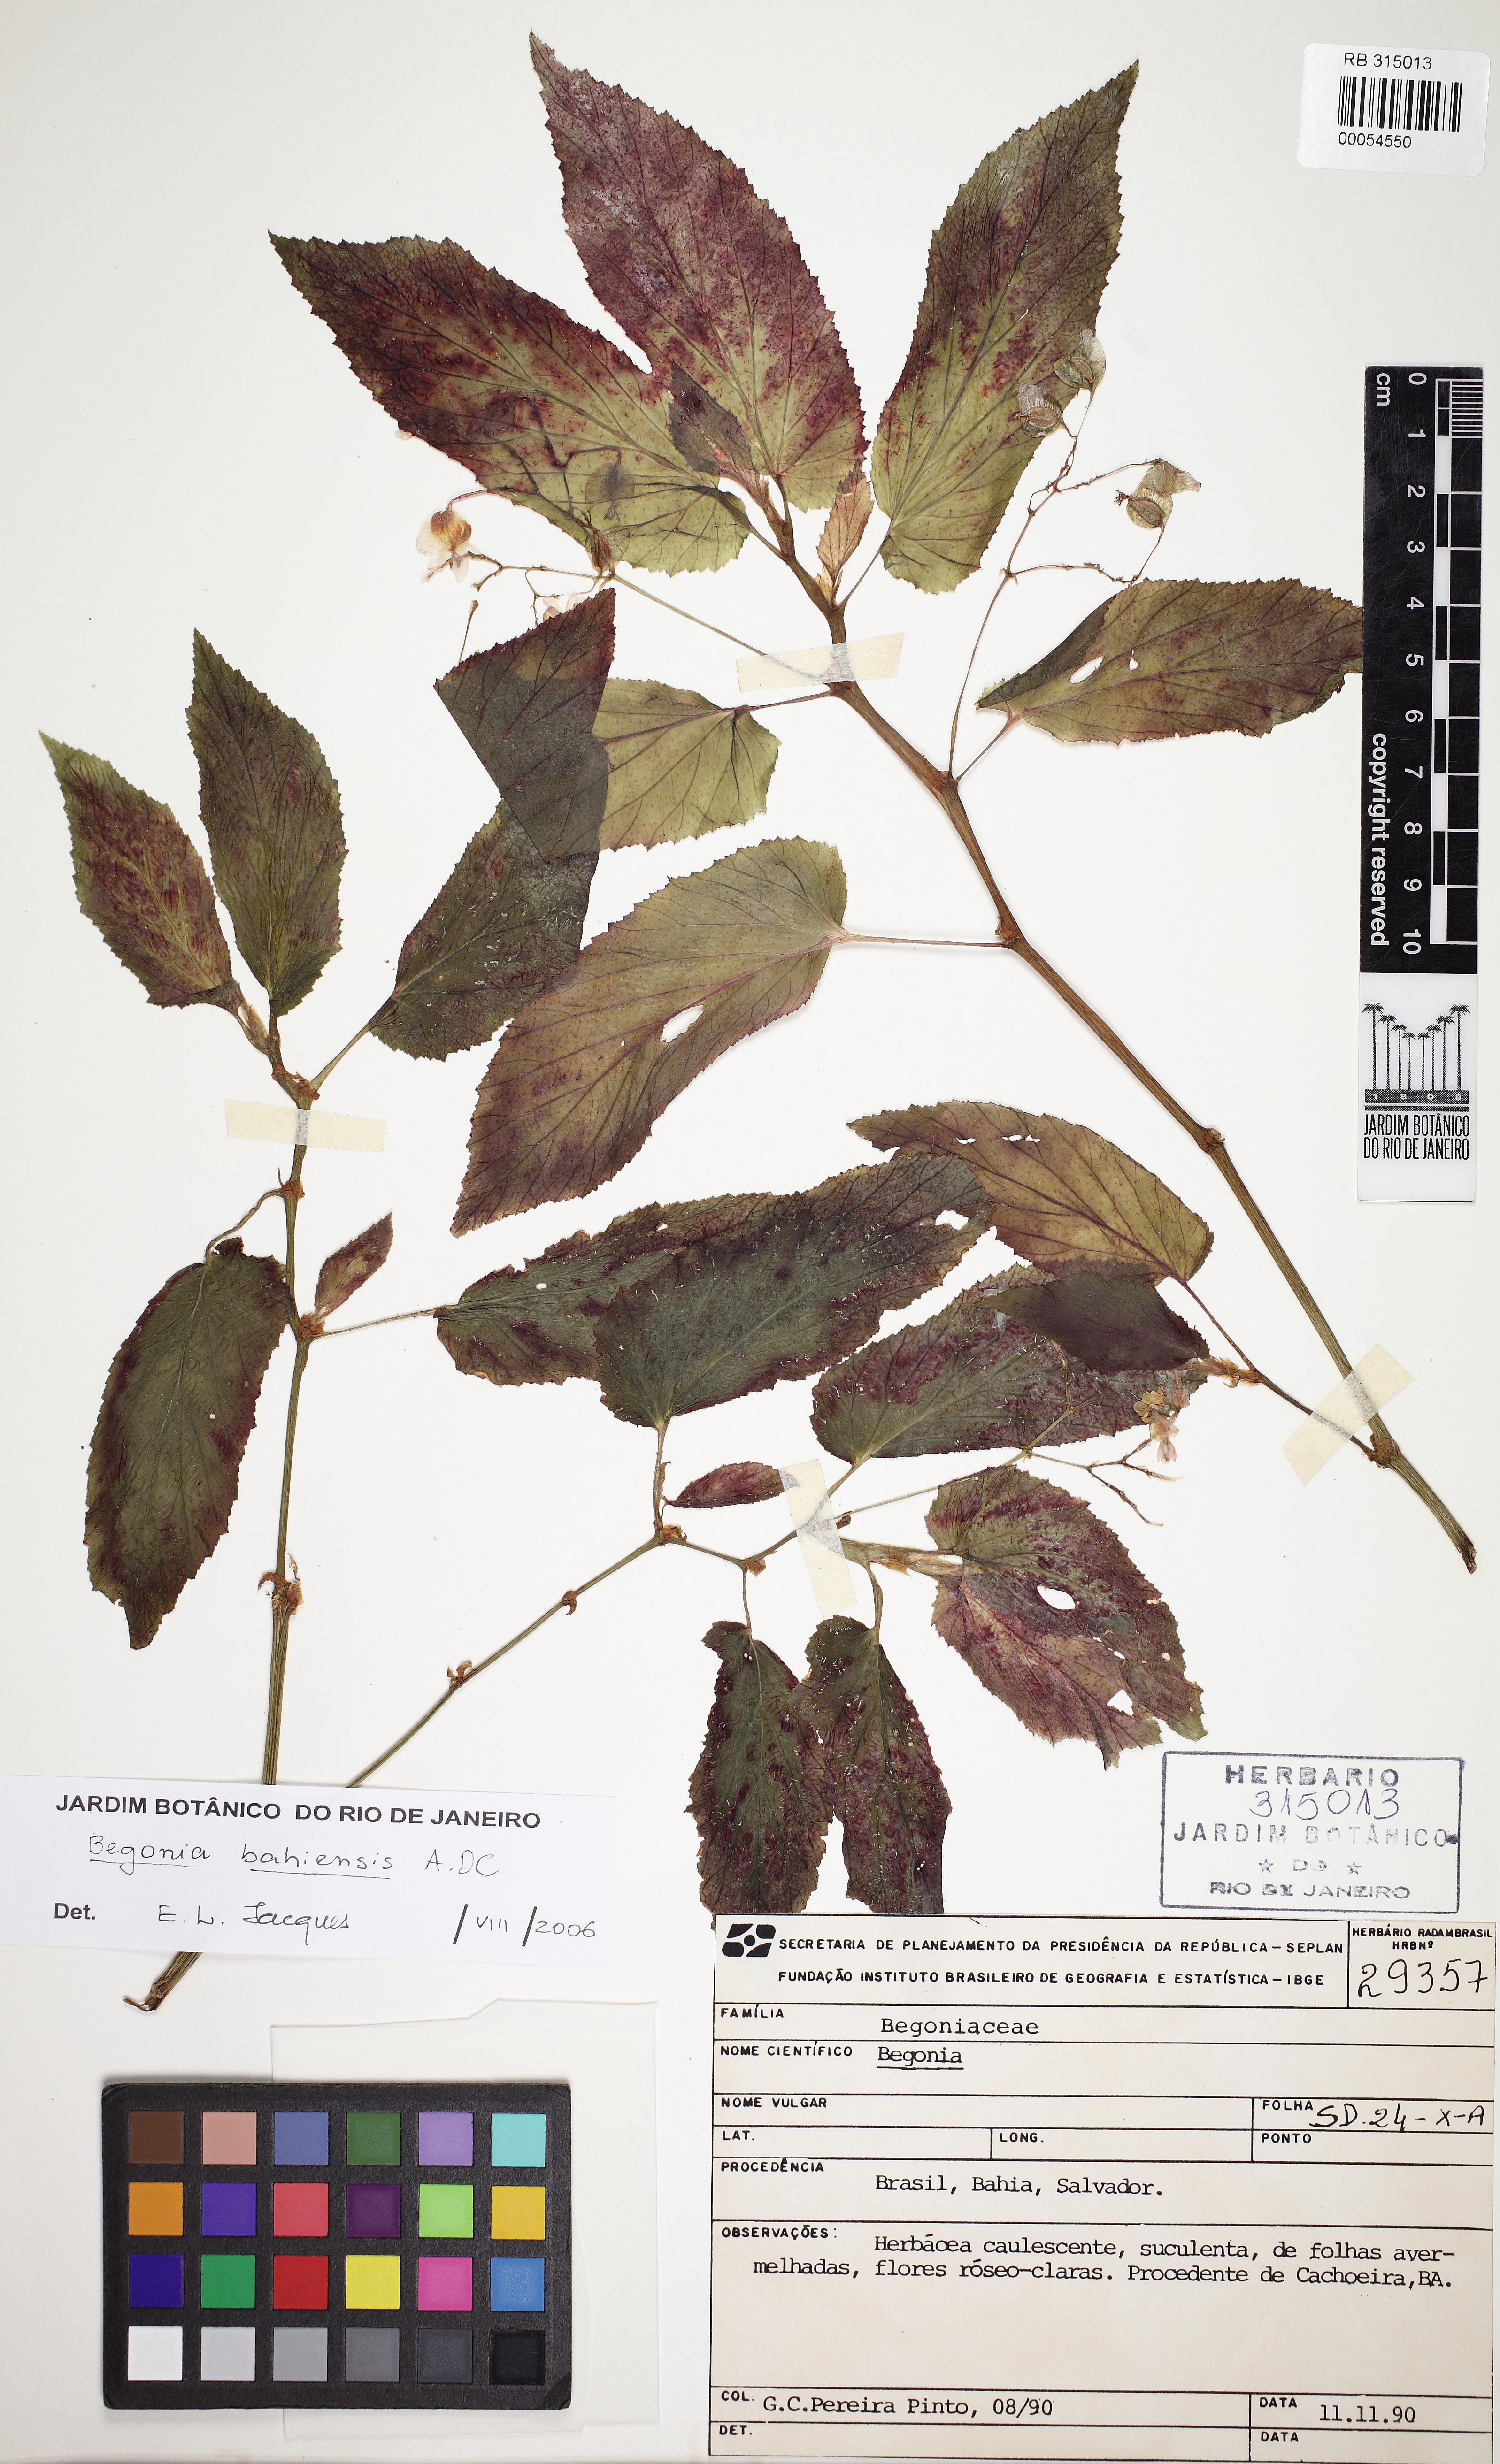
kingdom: Plantae
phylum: Tracheophyta
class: Magnoliopsida
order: Cucurbitales
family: Begoniaceae
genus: Begonia
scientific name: Begonia ulmifolia
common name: Elm-leaf begonia
